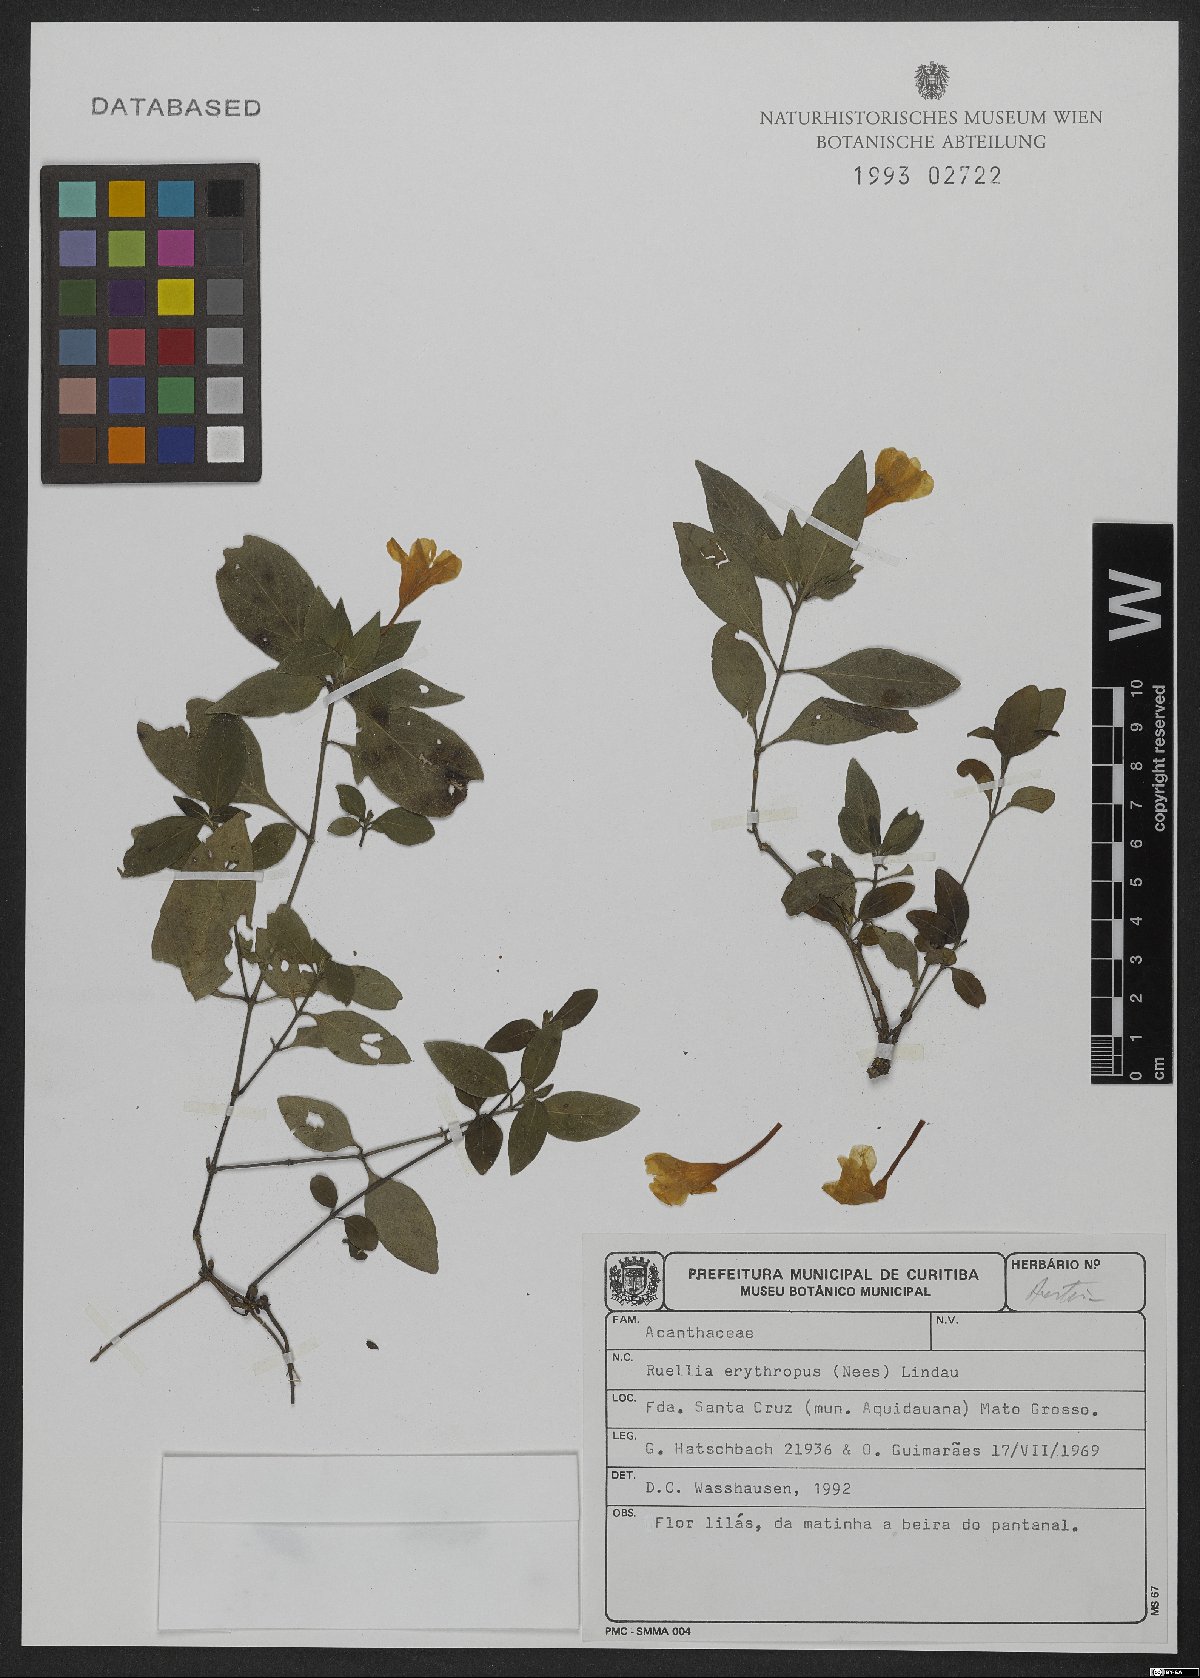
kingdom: Plantae
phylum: Tracheophyta
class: Magnoliopsida
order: Lamiales
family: Acanthaceae
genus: Ruellia
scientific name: Ruellia erythropus
